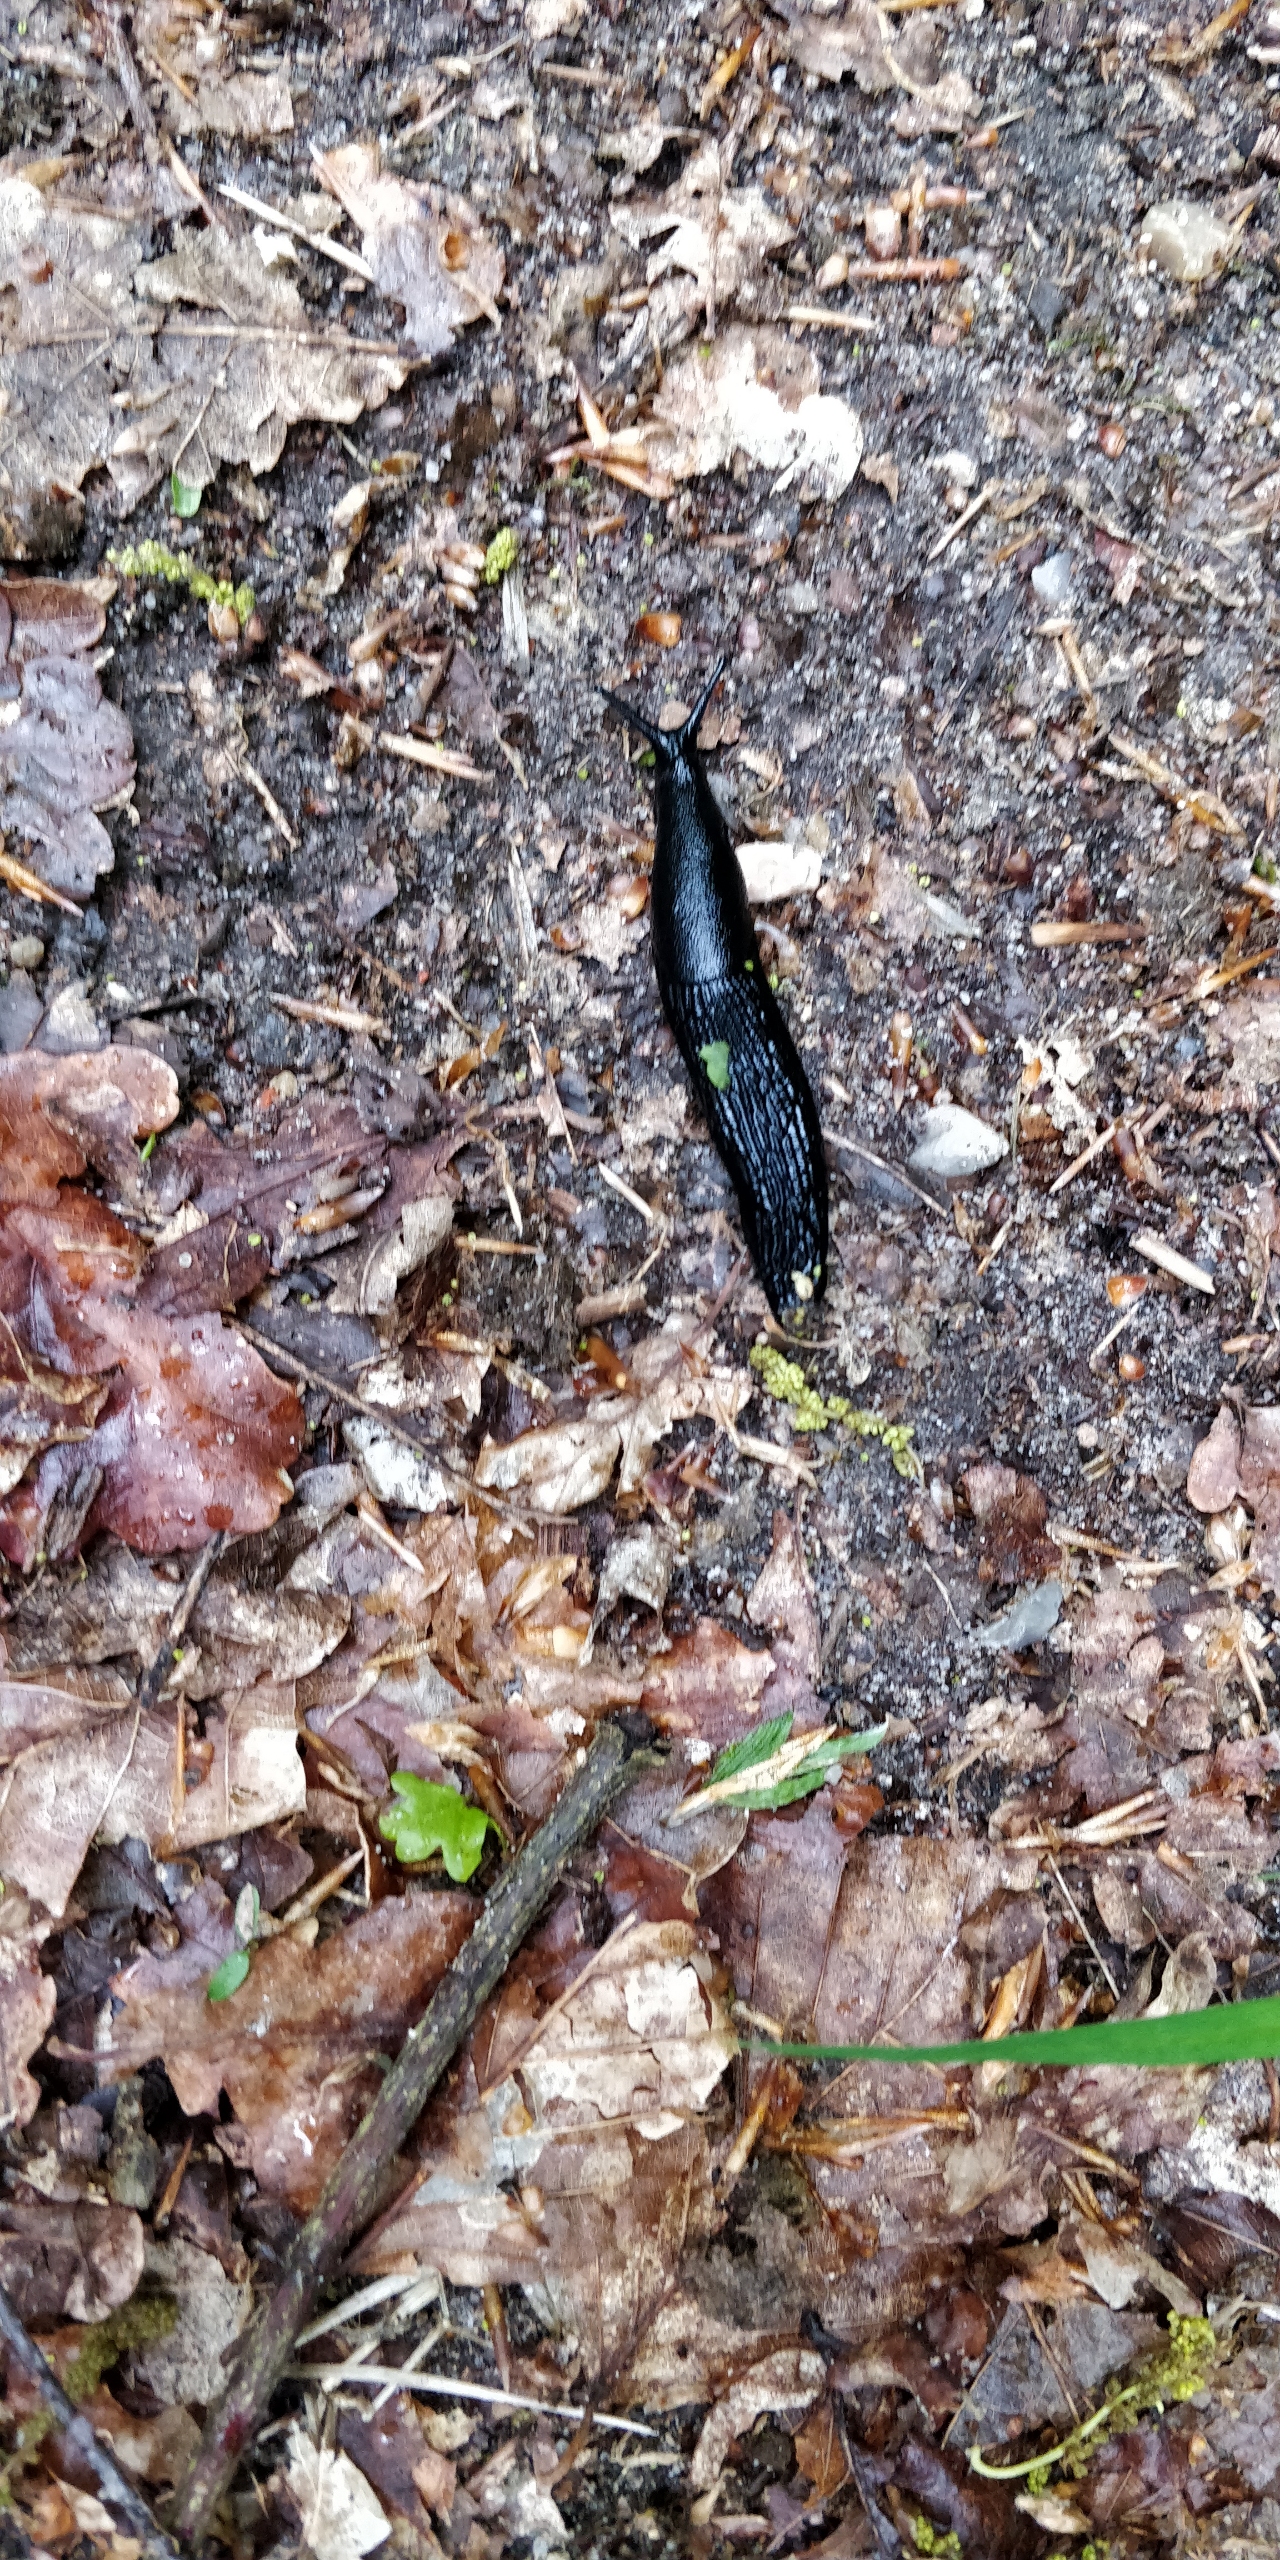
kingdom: Animalia
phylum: Mollusca
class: Gastropoda
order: Stylommatophora
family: Arionidae
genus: Arion
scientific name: Arion ater
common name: Sort skovsnegl
